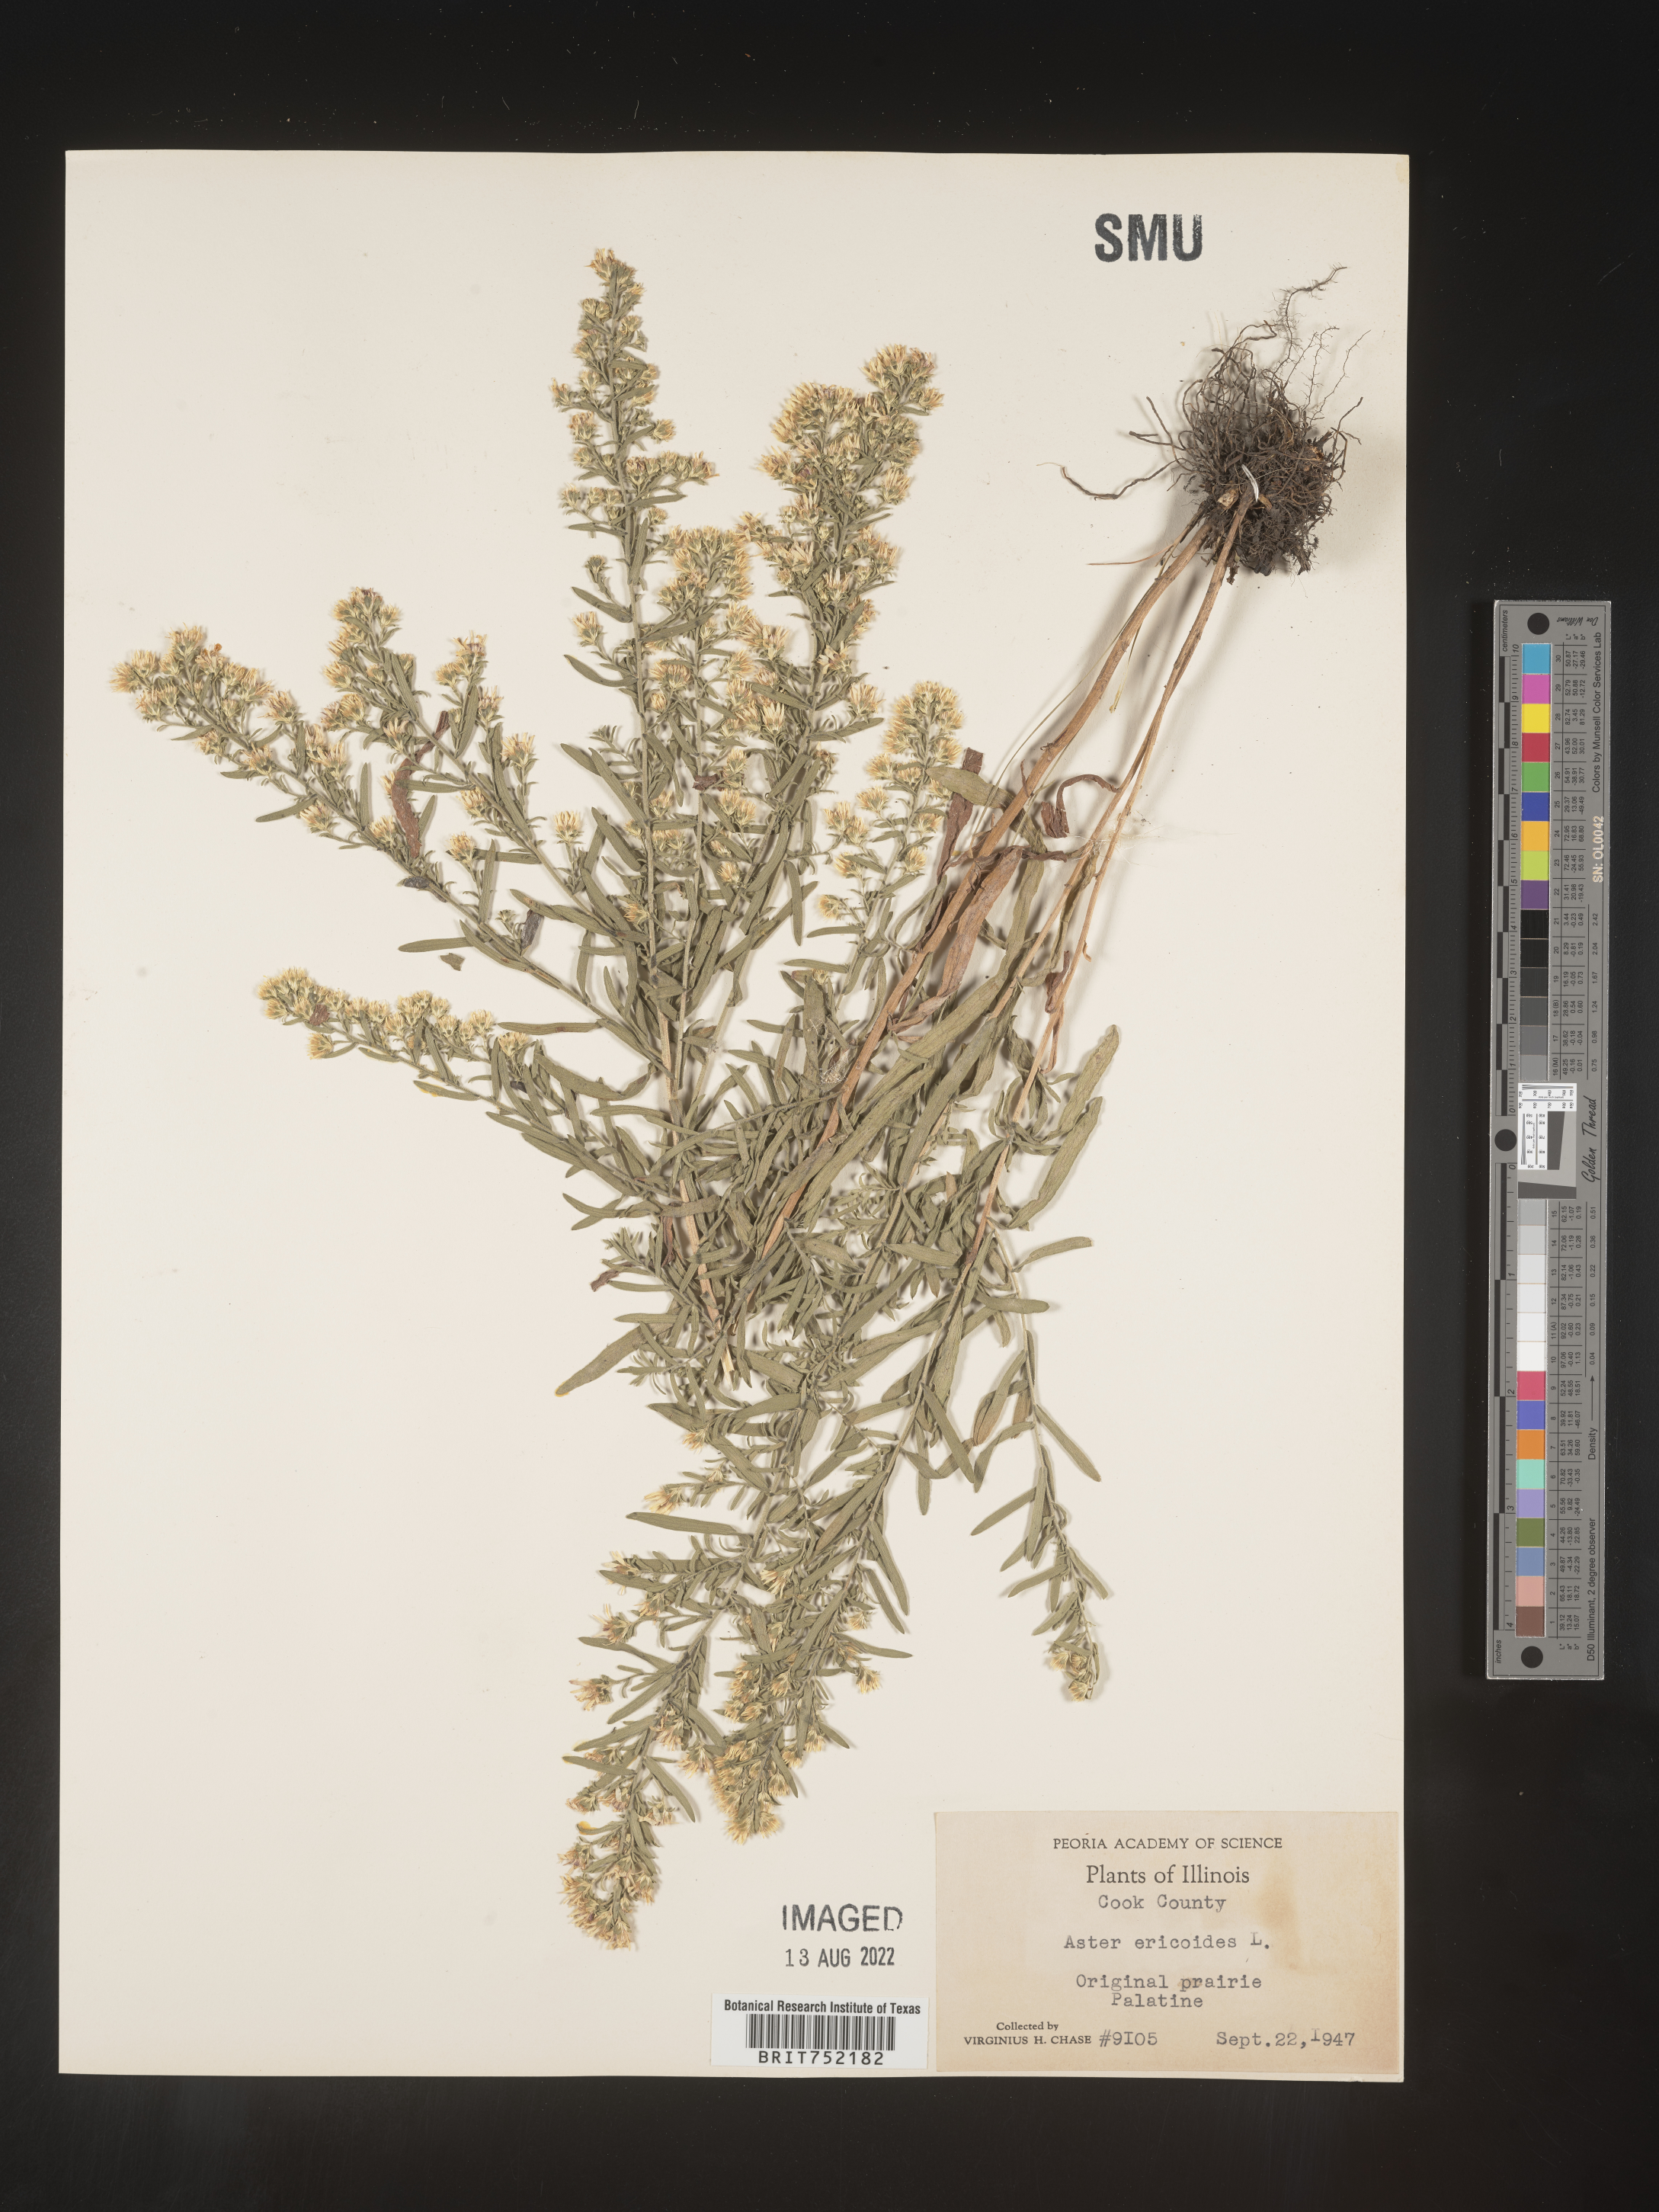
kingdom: Plantae
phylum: Tracheophyta
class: Magnoliopsida
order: Asterales
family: Asteraceae
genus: Symphyotrichum
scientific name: Symphyotrichum ericoides
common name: Heath aster
